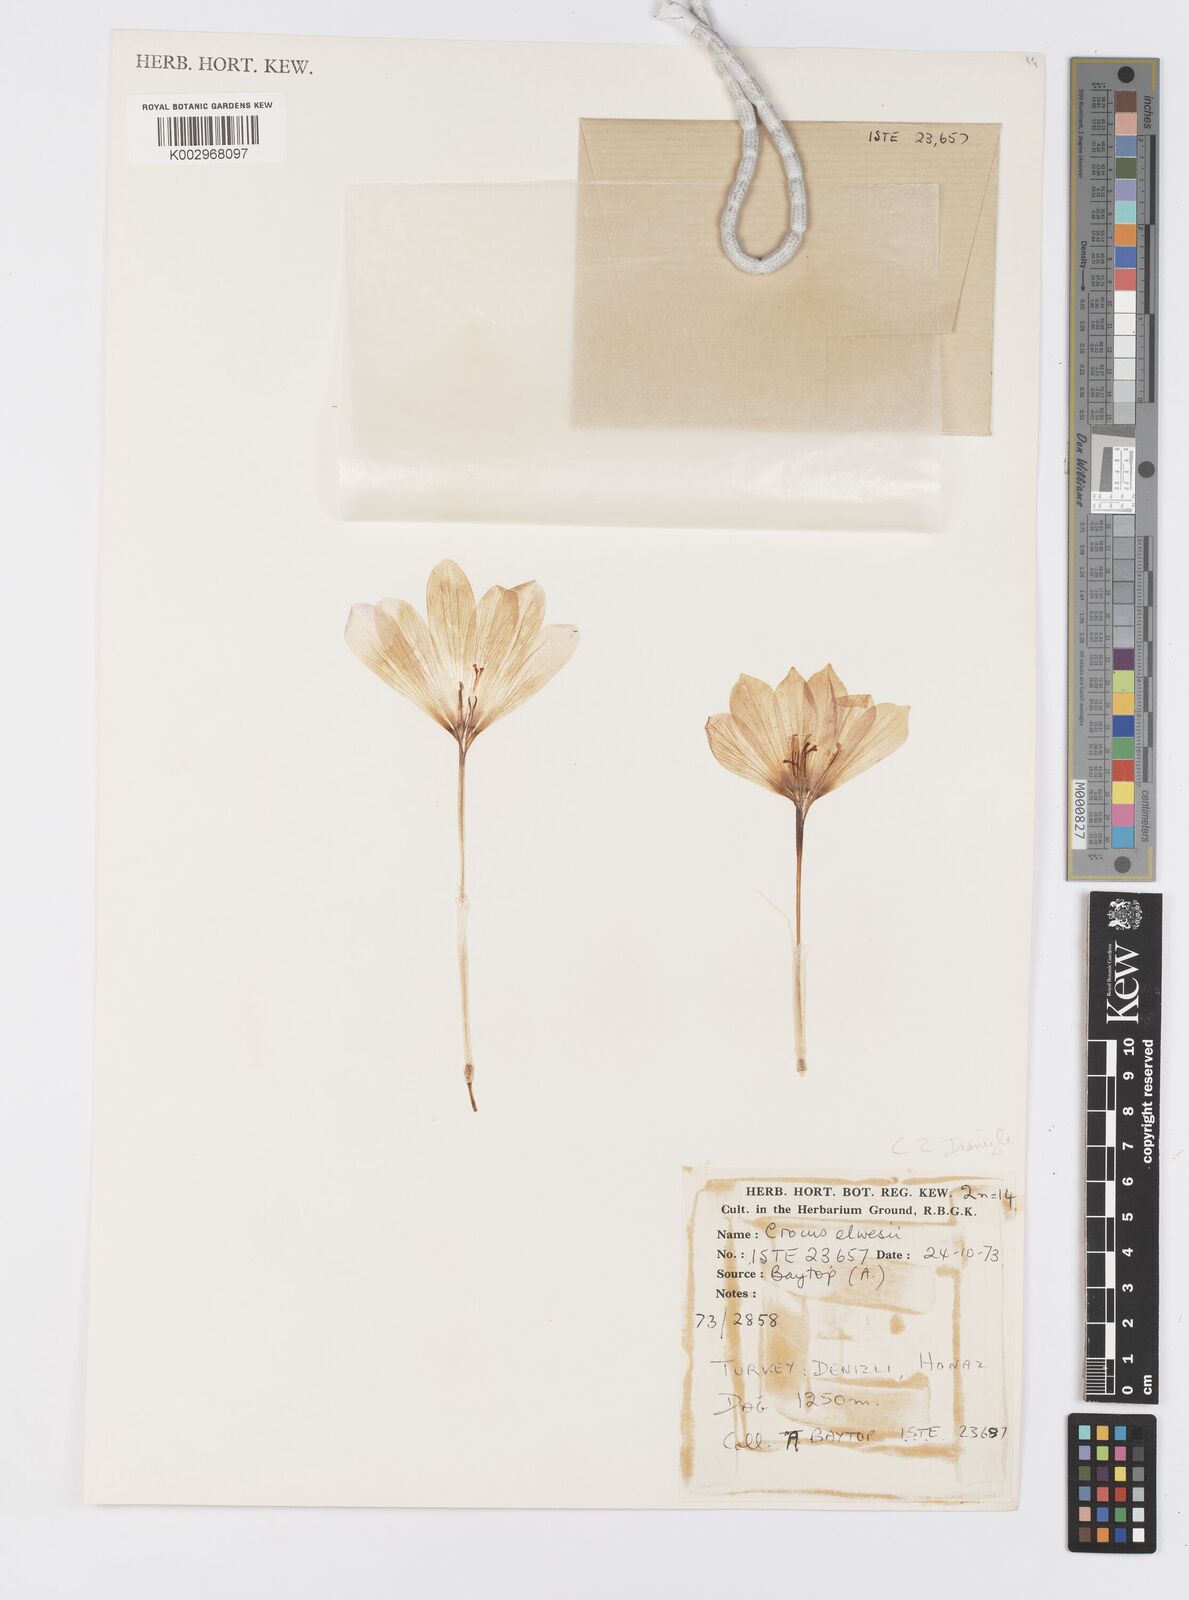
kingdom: Plantae
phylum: Tracheophyta
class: Liliopsida
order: Asparagales
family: Iridaceae
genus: Crocus
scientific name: Crocus
